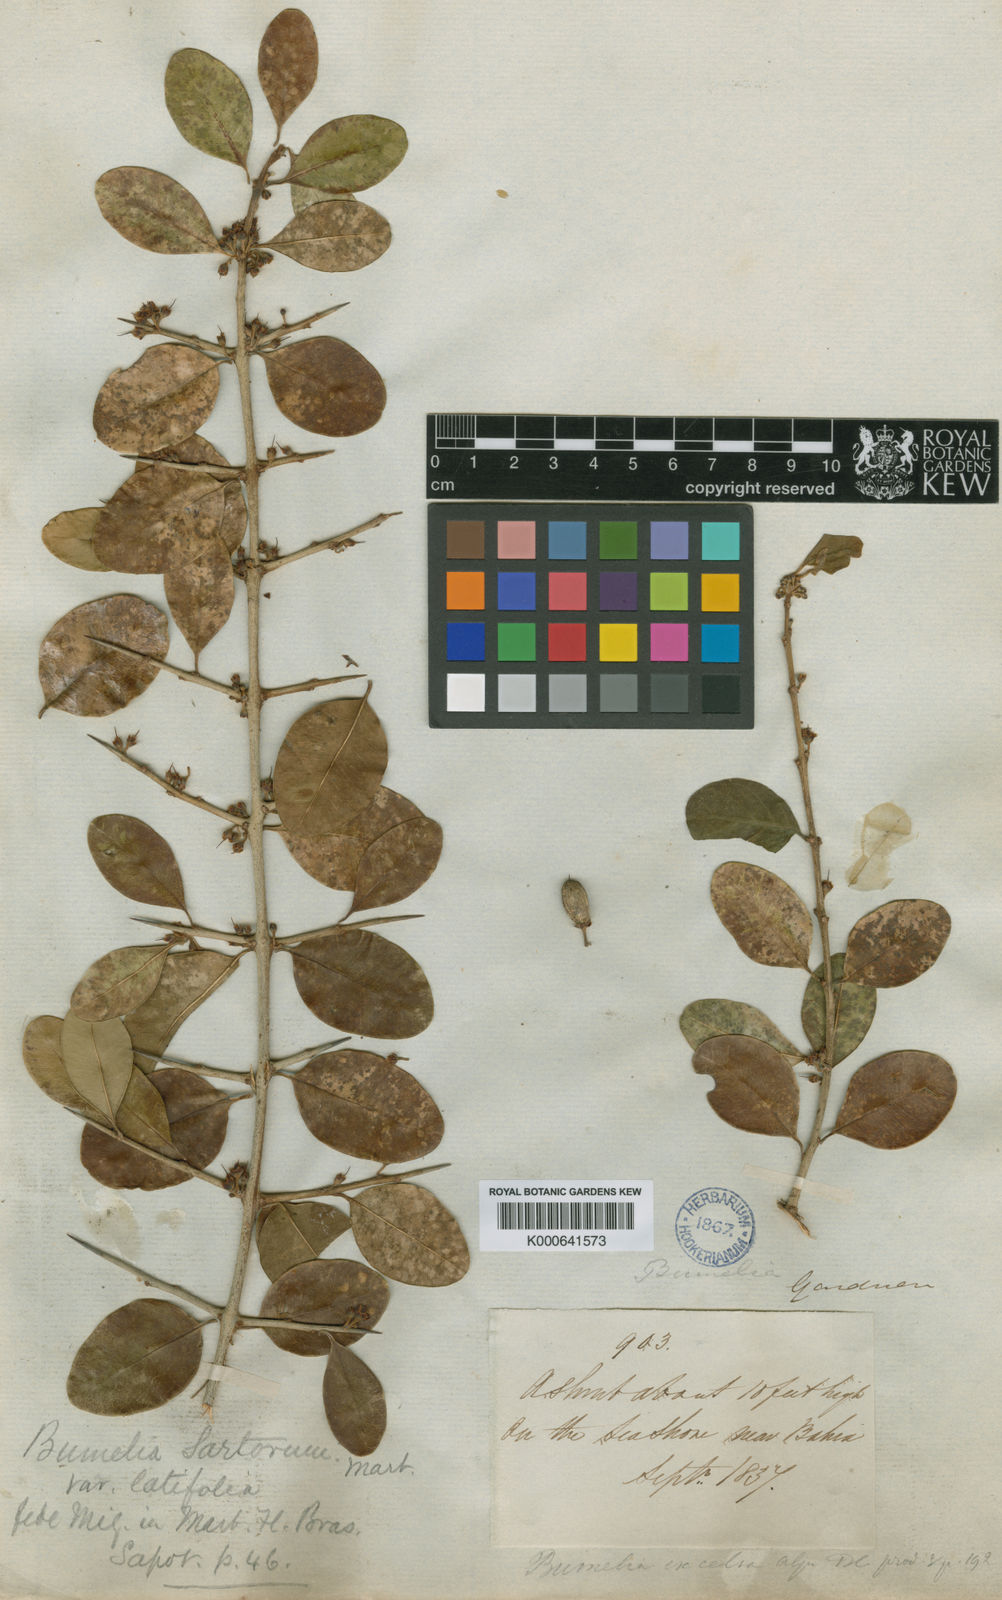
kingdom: Plantae
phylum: Tracheophyta
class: Magnoliopsida
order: Ericales
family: Sapotaceae
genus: Sideroxylon
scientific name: Sideroxylon obtusifolium
